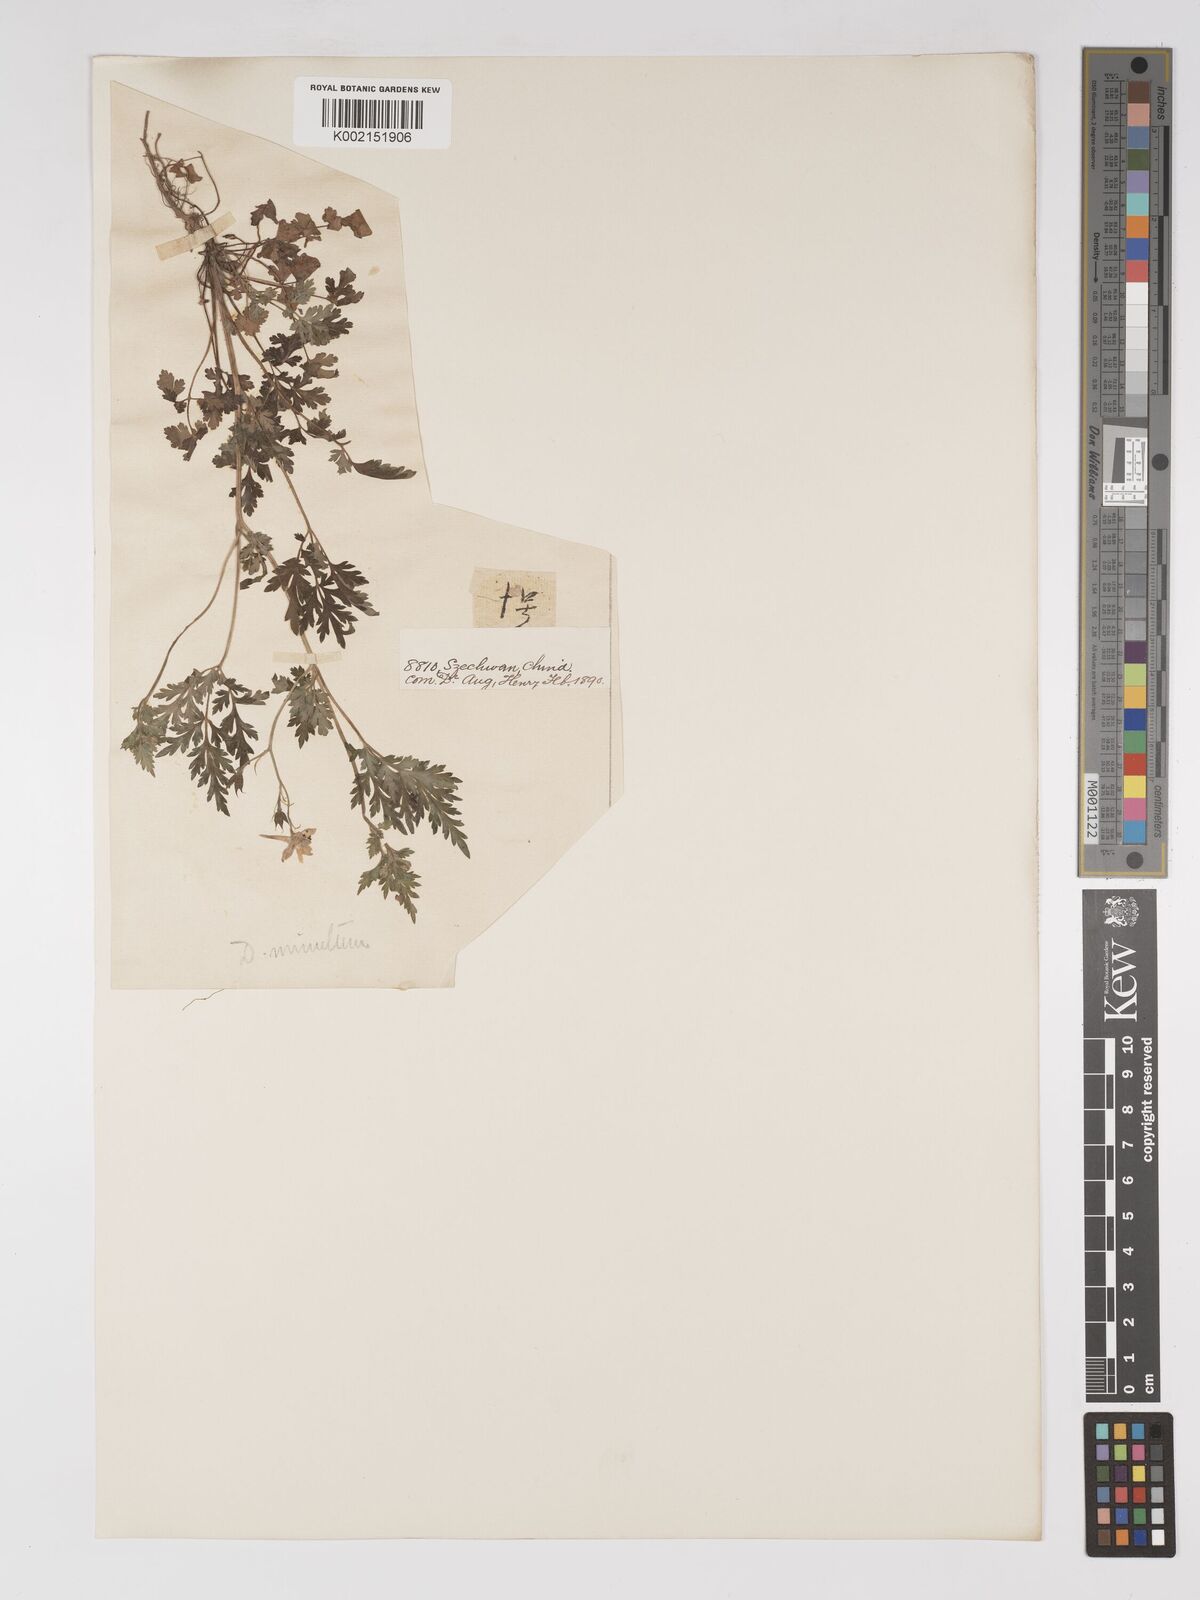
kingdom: Plantae
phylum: Tracheophyta
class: Magnoliopsida
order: Ranunculales
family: Ranunculaceae
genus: Delphinium
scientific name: Delphinium anthriscifolium
